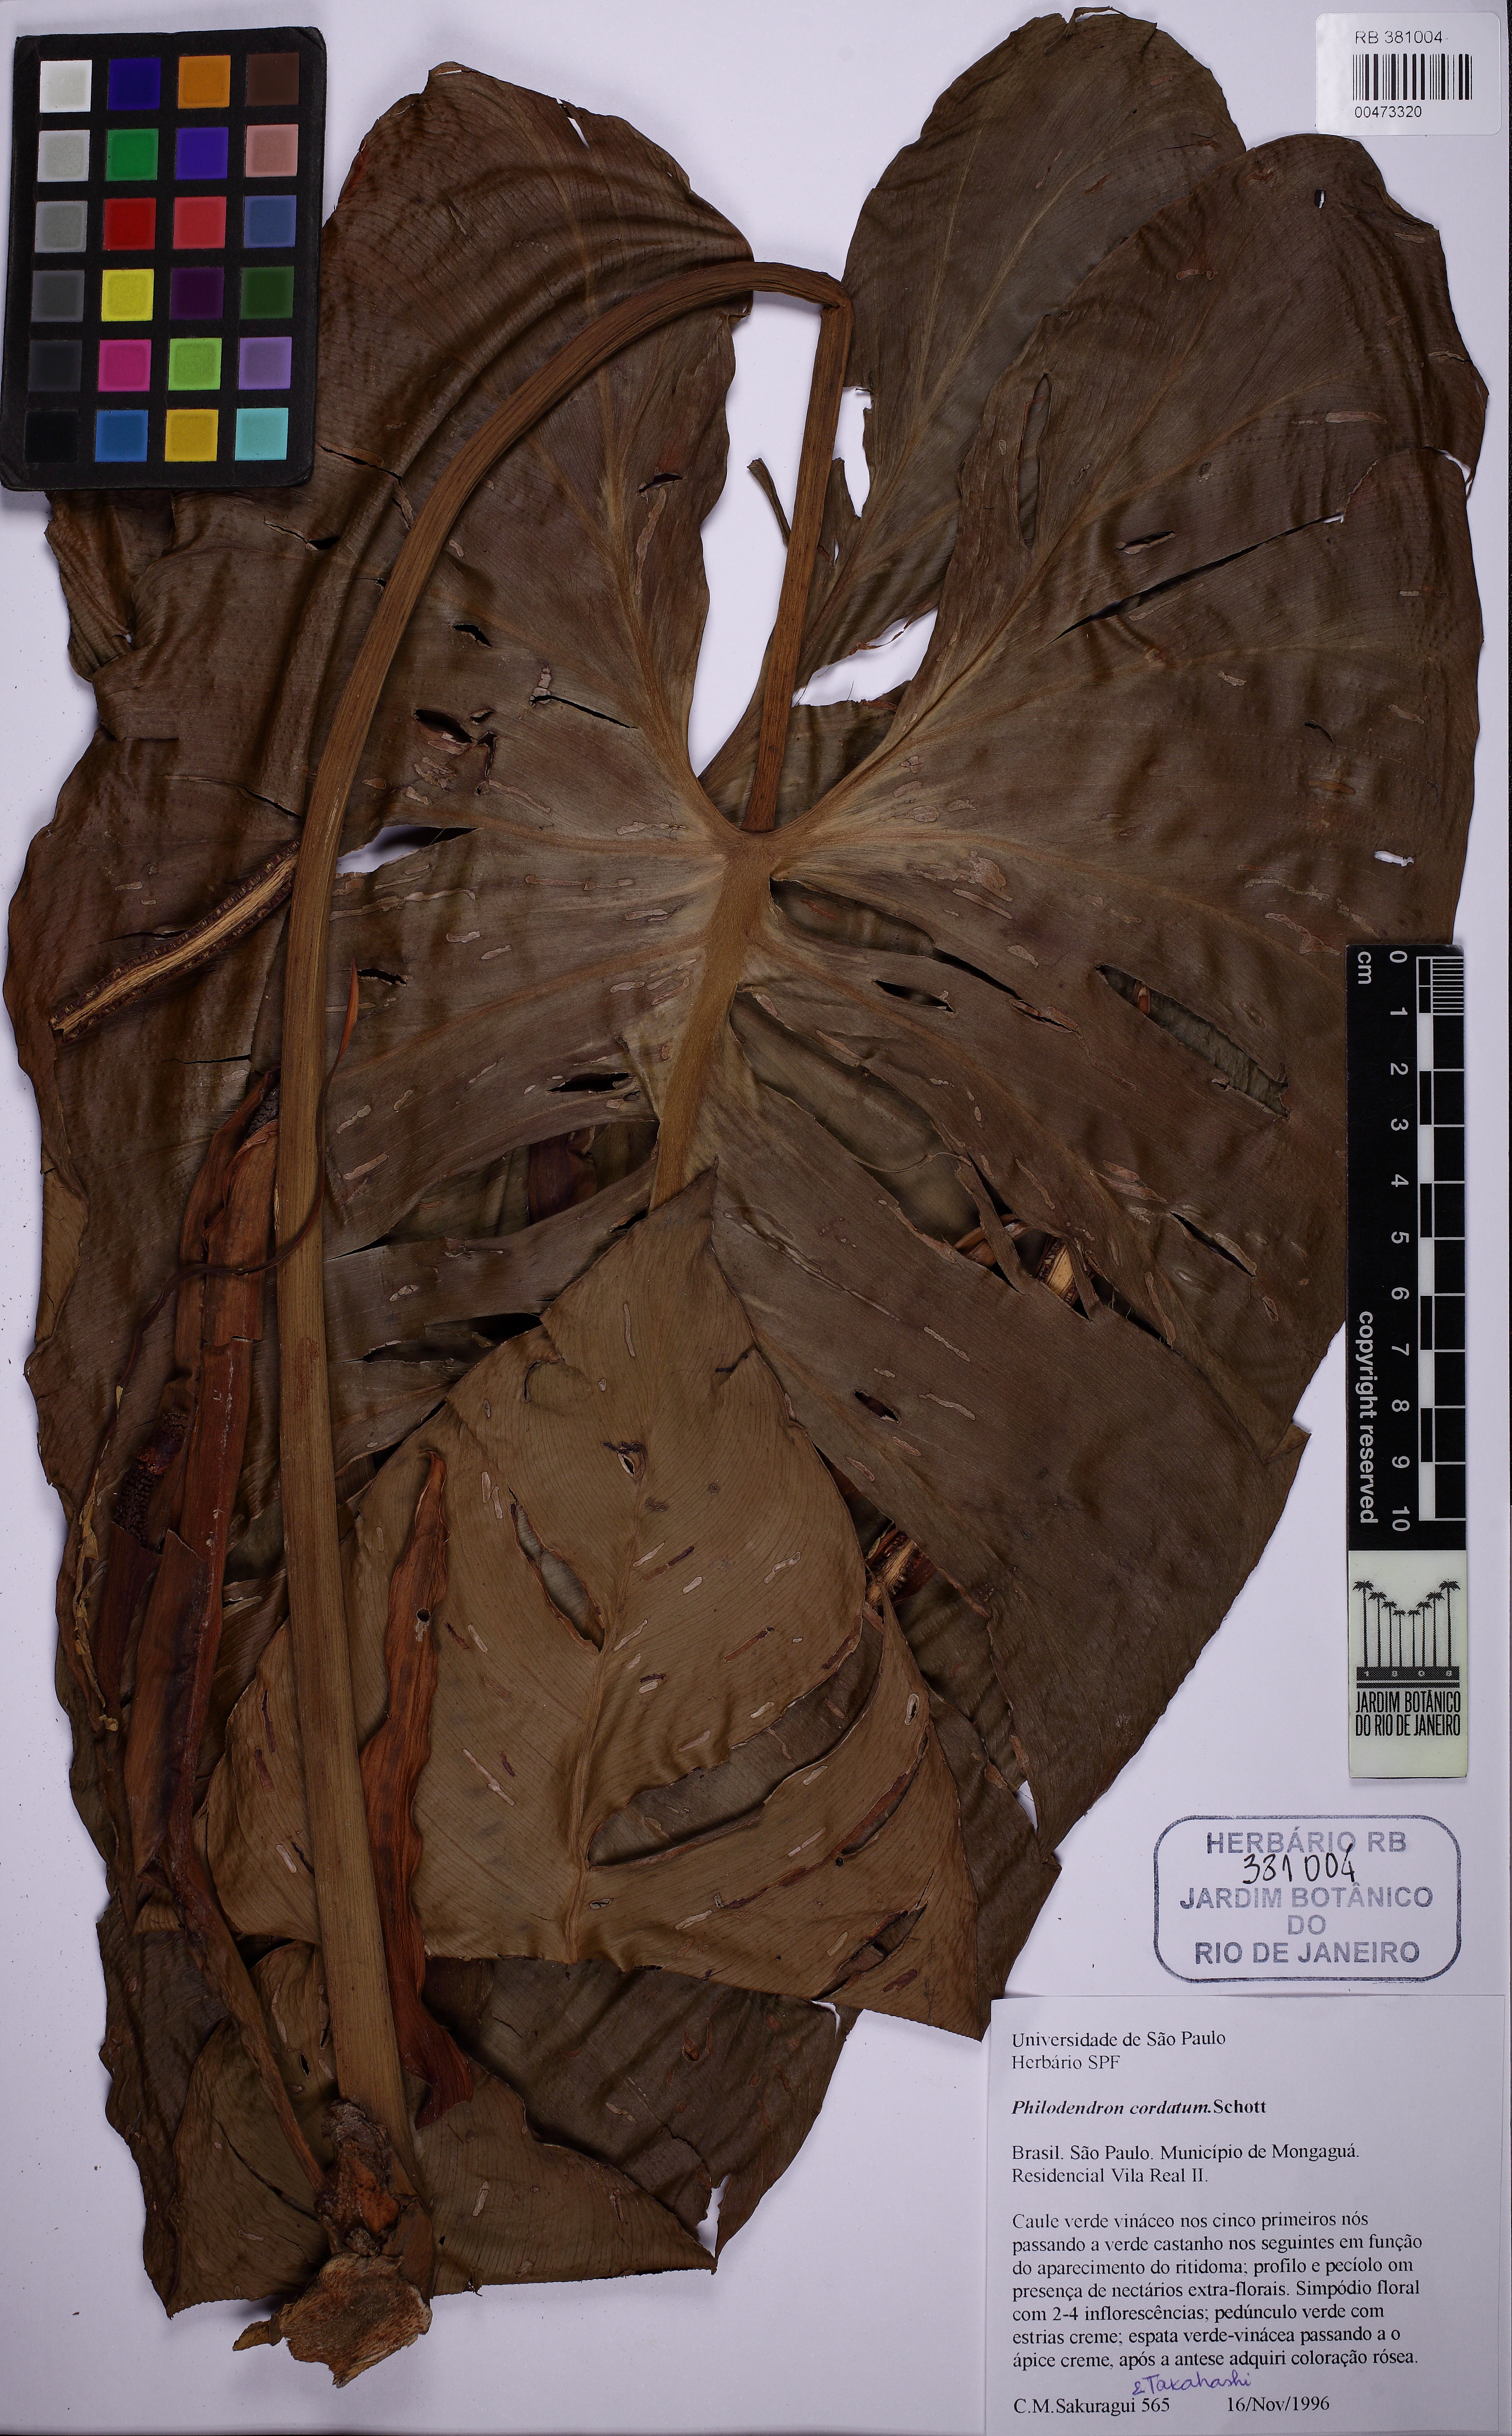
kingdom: Plantae
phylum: Tracheophyta
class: Liliopsida
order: Alismatales
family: Araceae
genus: Philodendron
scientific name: Philodendron cordatum
